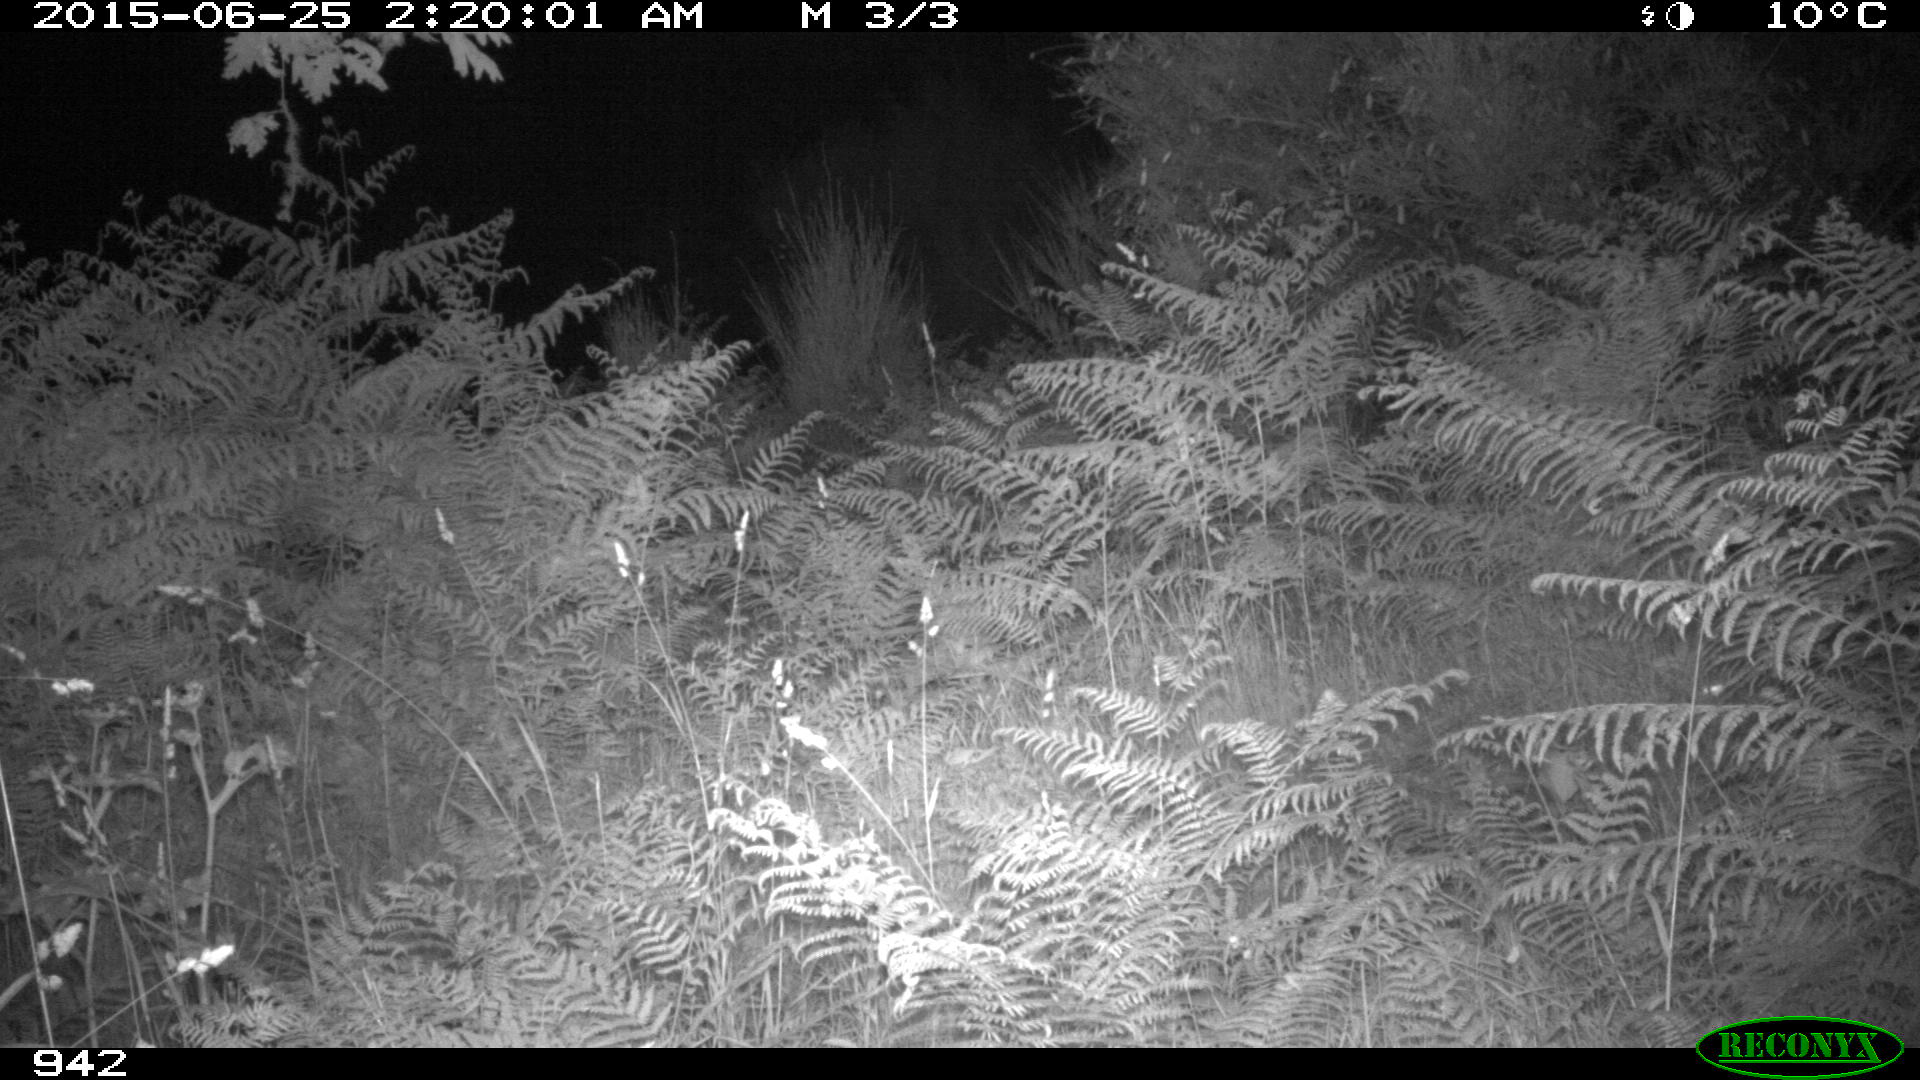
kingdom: Animalia
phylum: Chordata
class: Mammalia
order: Artiodactyla
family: Suidae
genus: Sus
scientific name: Sus scrofa
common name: Wild boar
